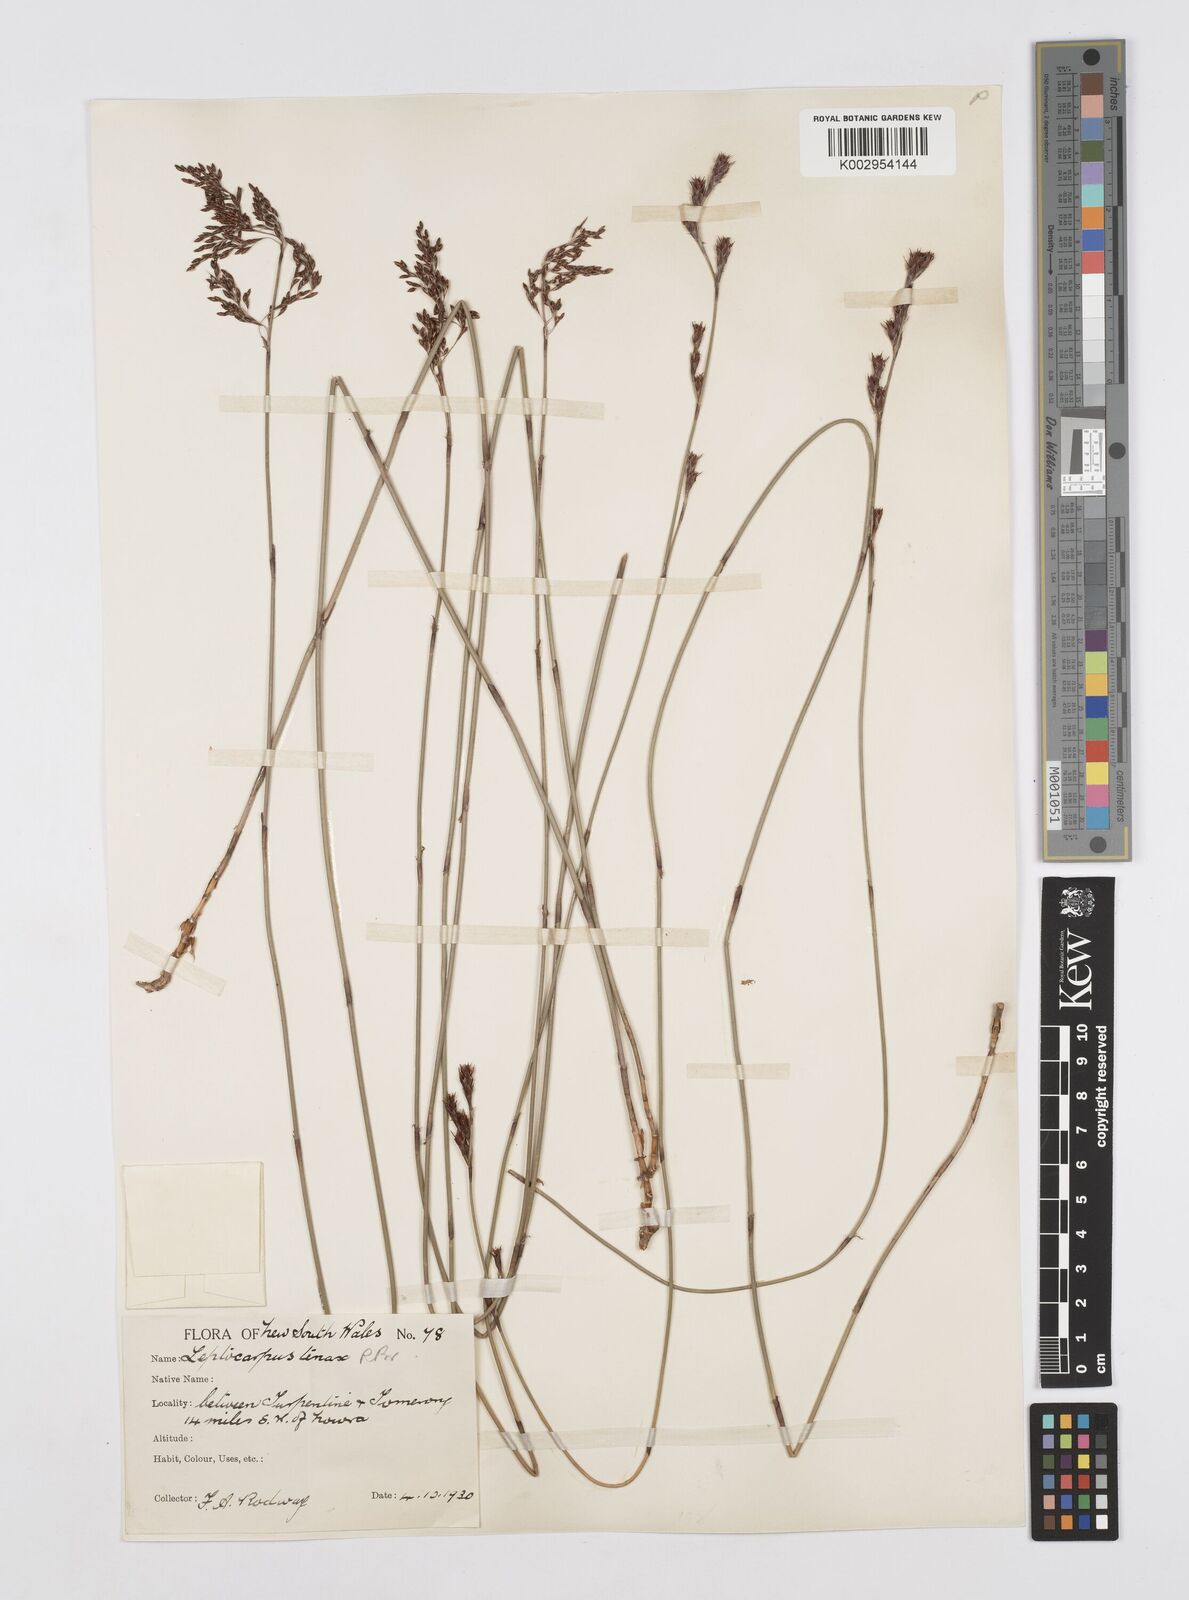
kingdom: Plantae
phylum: Tracheophyta
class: Liliopsida
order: Poales
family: Restionaceae
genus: Leptocarpus
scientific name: Leptocarpus tenax
